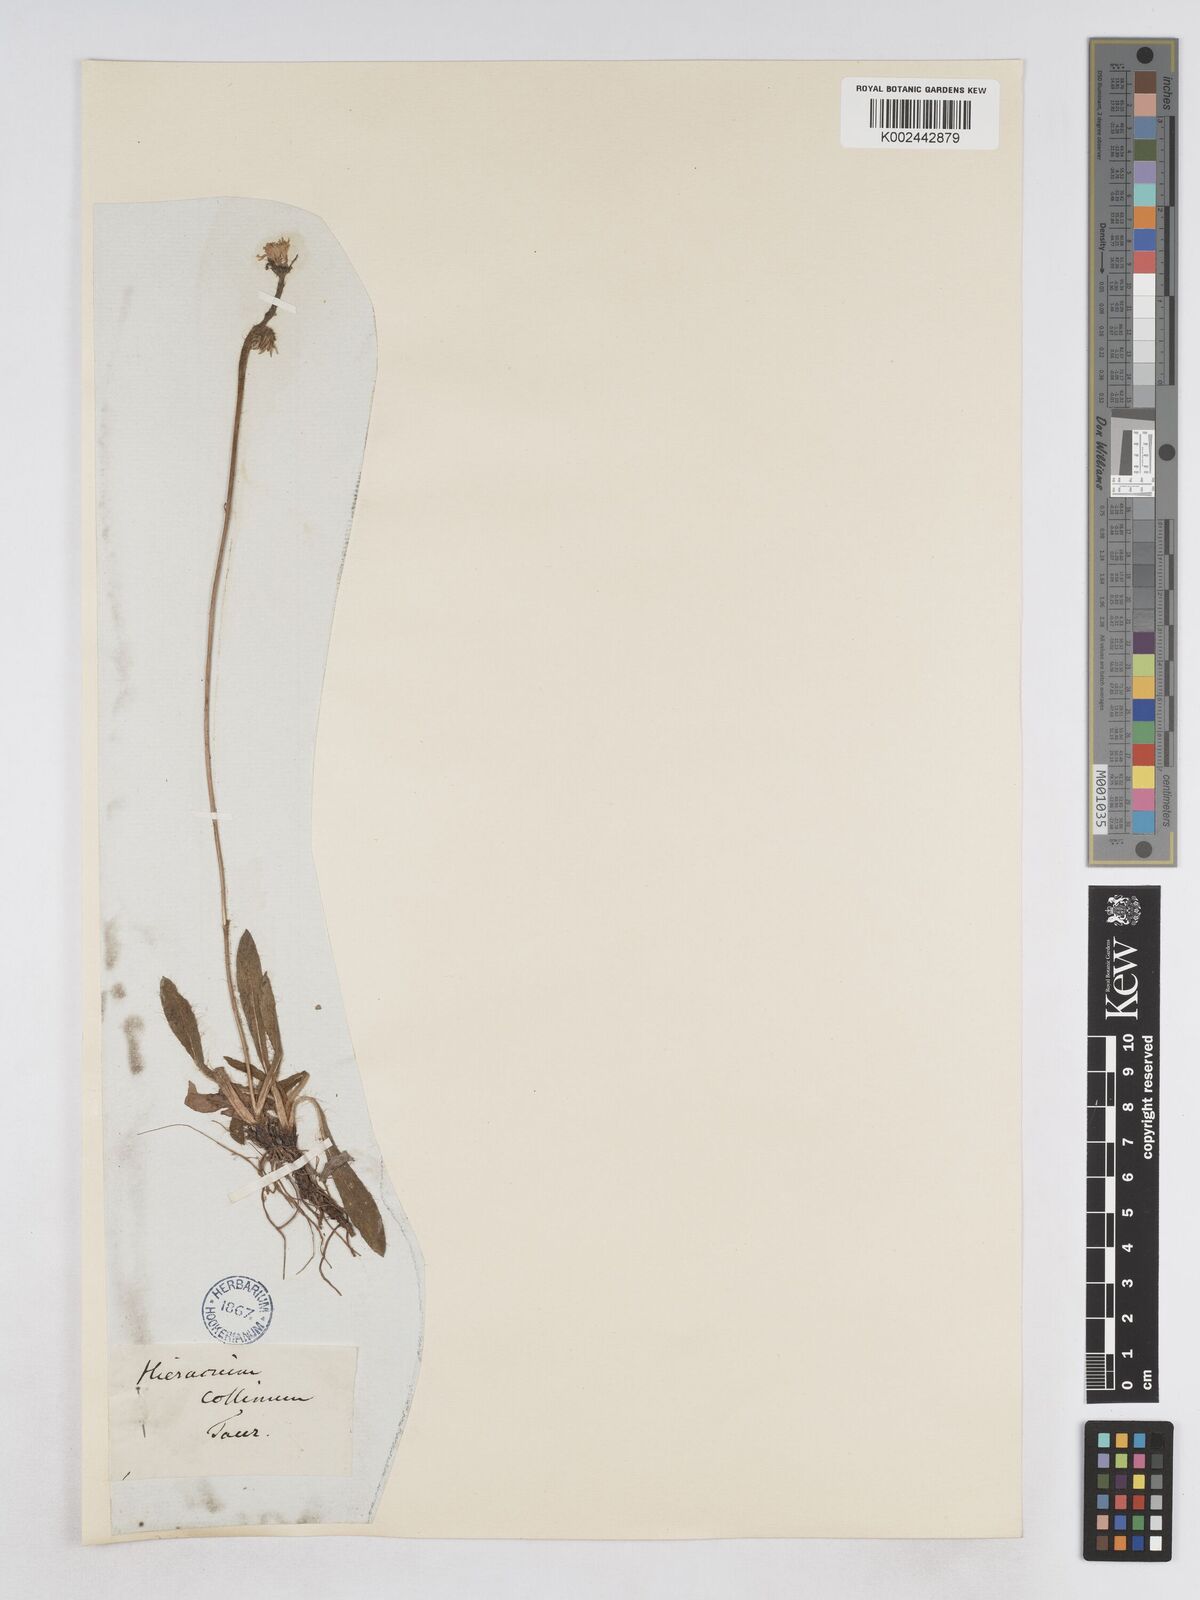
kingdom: Plantae
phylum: Tracheophyta
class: Magnoliopsida
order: Asterales
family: Asteraceae
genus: Pilosella
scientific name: Pilosella bifurca
